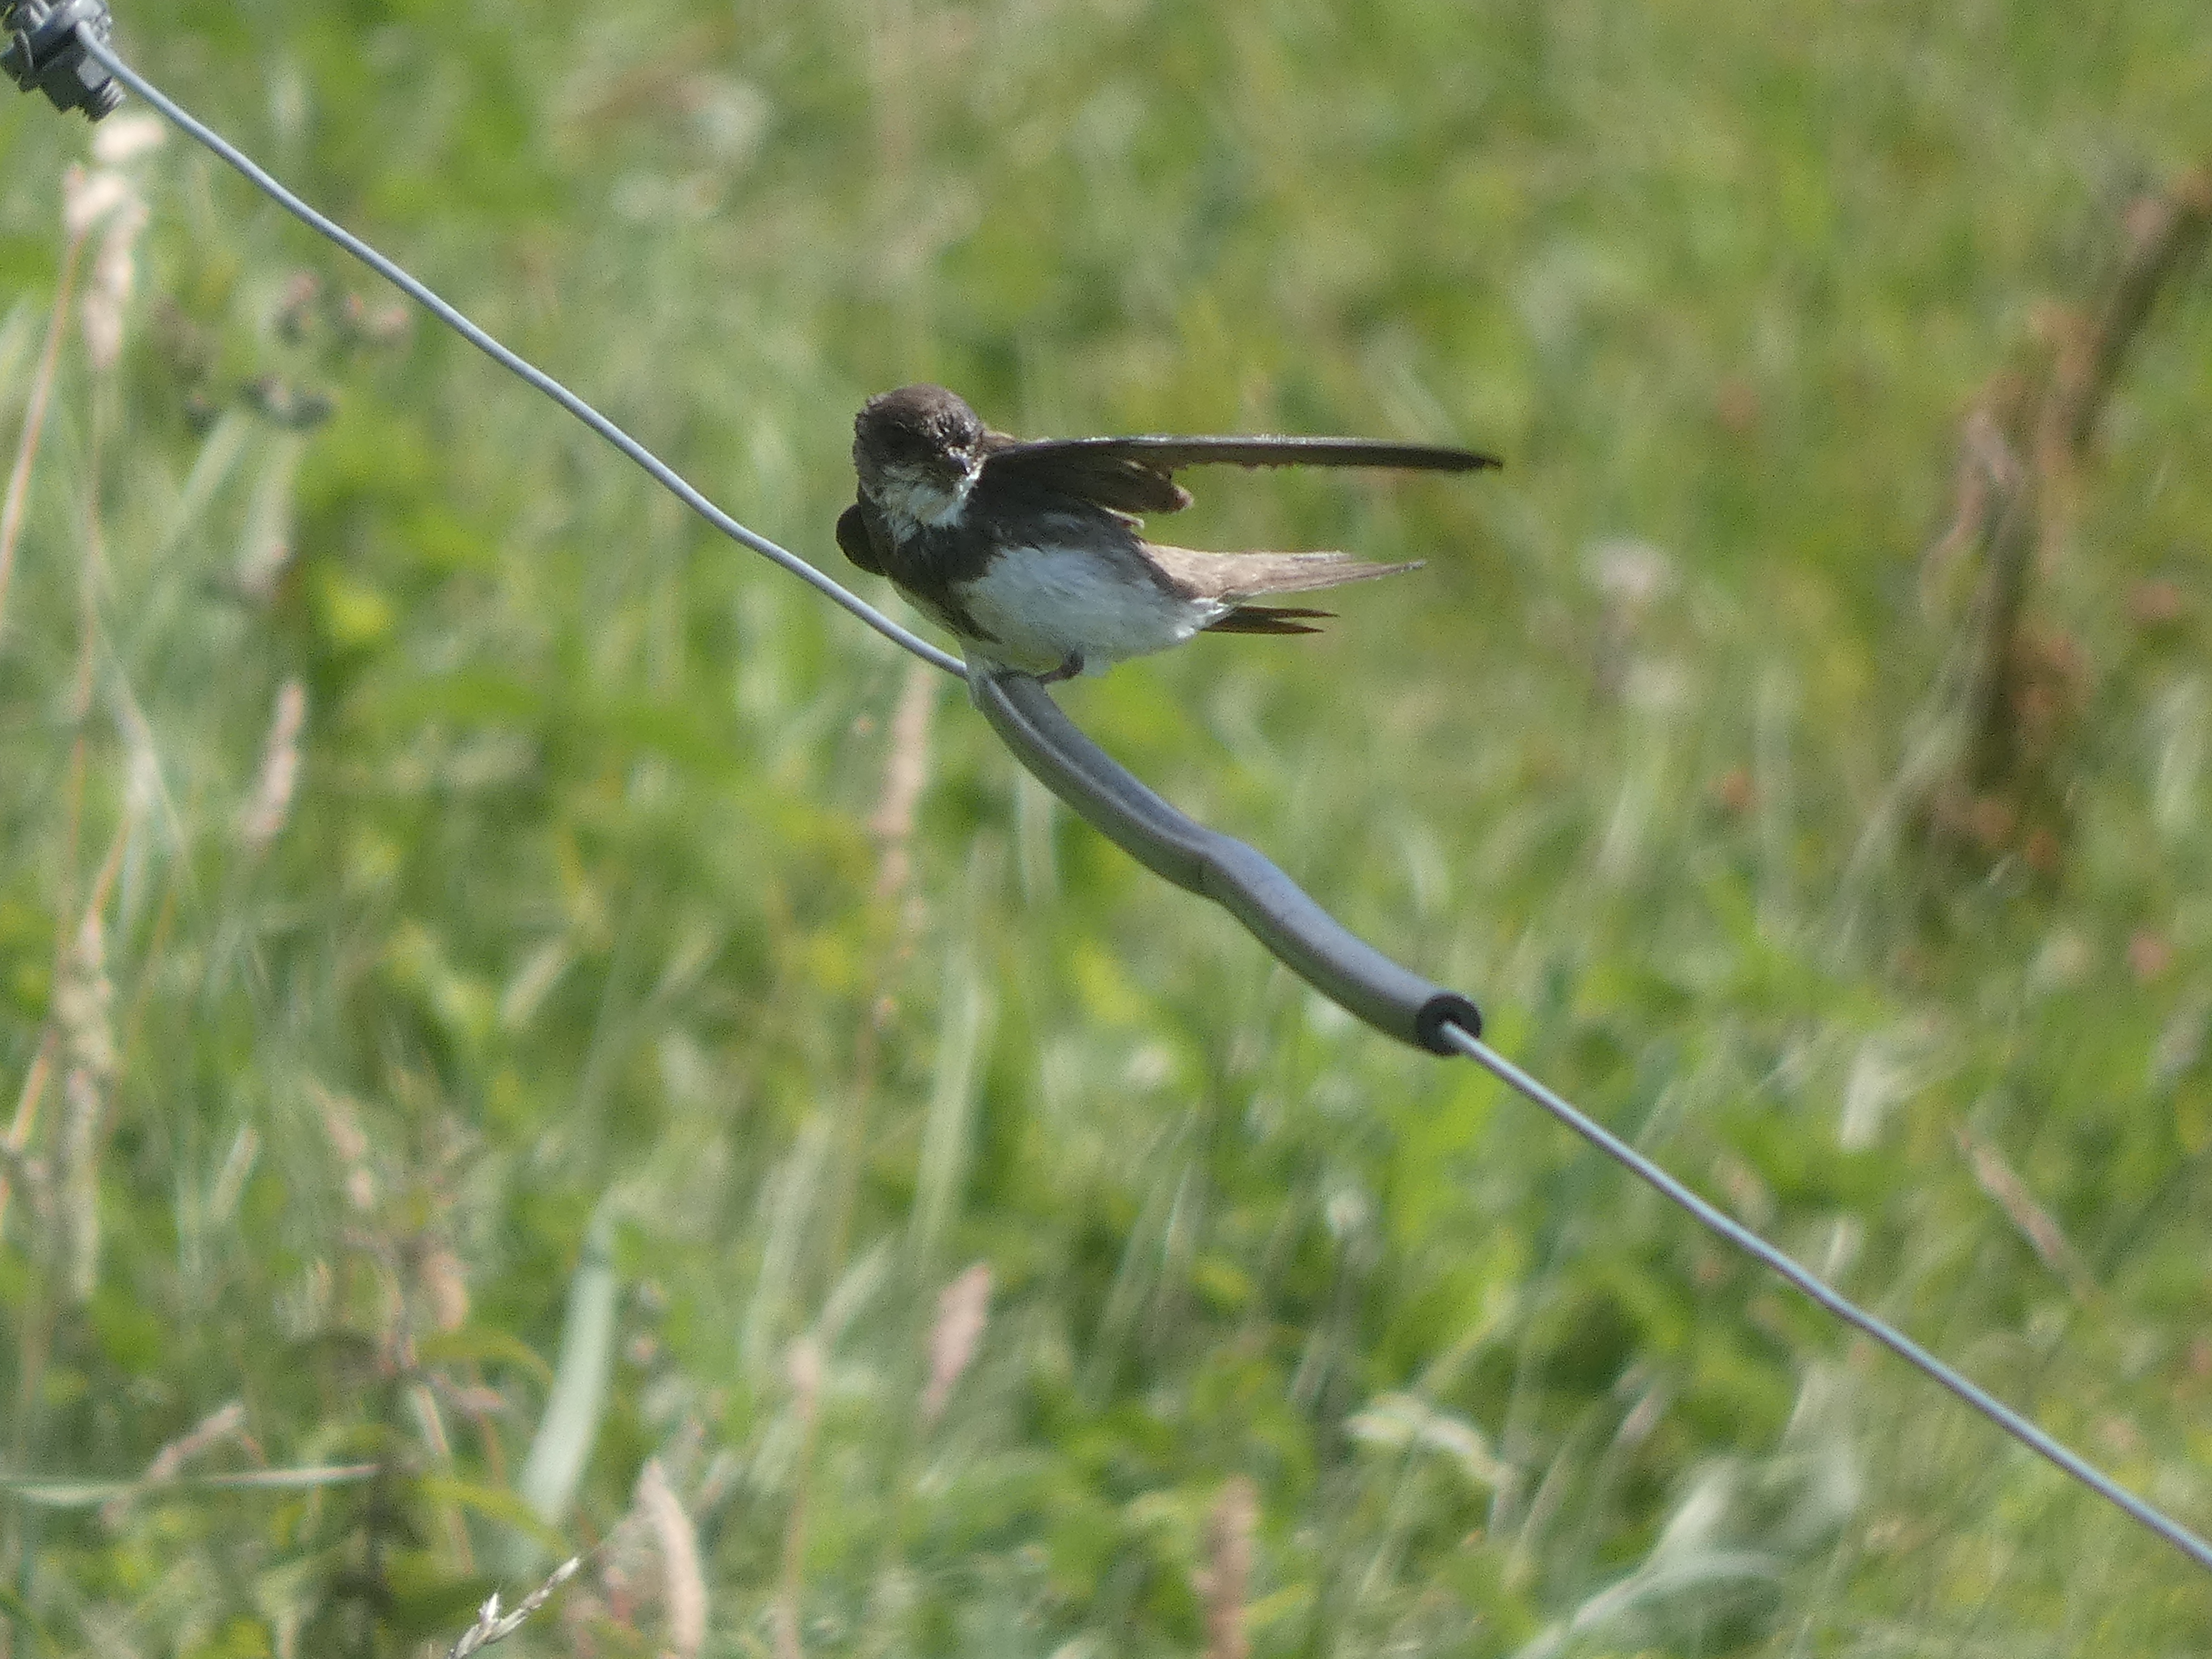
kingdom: Animalia
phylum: Chordata
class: Aves
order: Passeriformes
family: Hirundinidae
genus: Riparia
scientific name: Riparia riparia
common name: Digesvale
